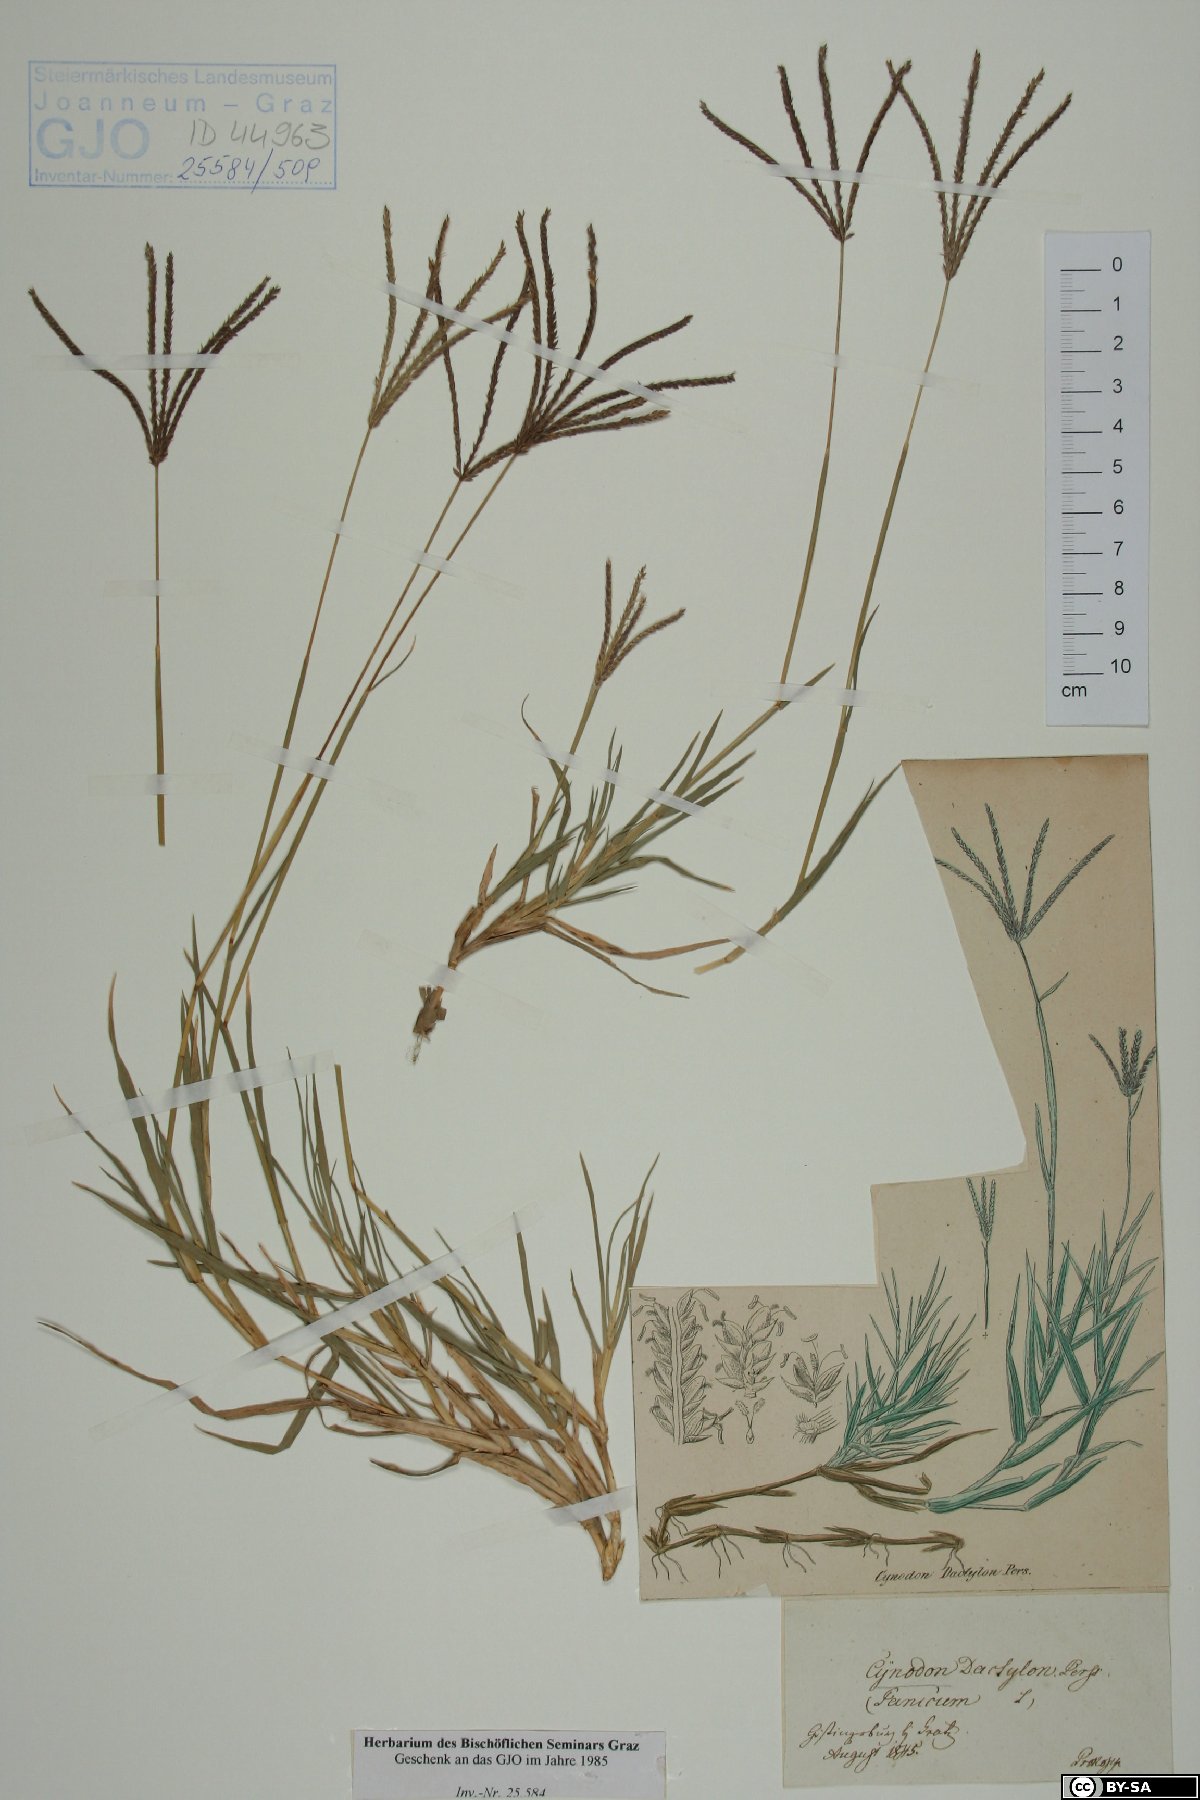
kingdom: Plantae
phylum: Tracheophyta
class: Liliopsida
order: Poales
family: Poaceae
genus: Cynodon
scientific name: Cynodon dactylon
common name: Bermuda grass
